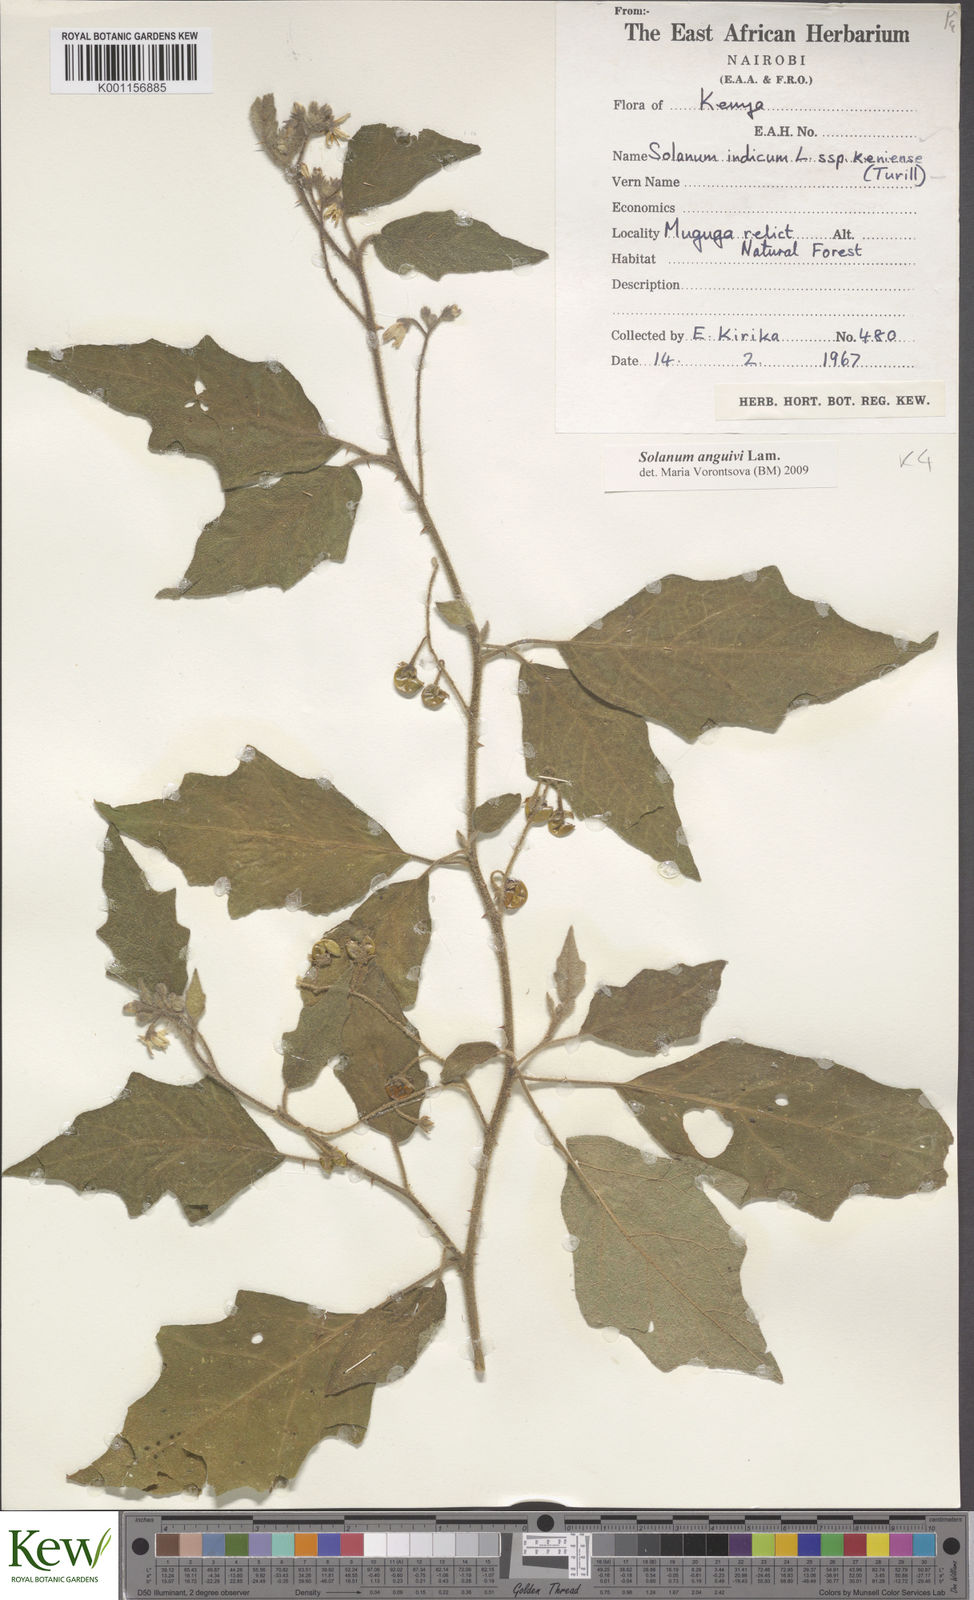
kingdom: Plantae
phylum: Tracheophyta
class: Magnoliopsida
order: Solanales
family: Solanaceae
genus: Solanum
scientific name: Solanum anguivi
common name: Forest bitterberry
